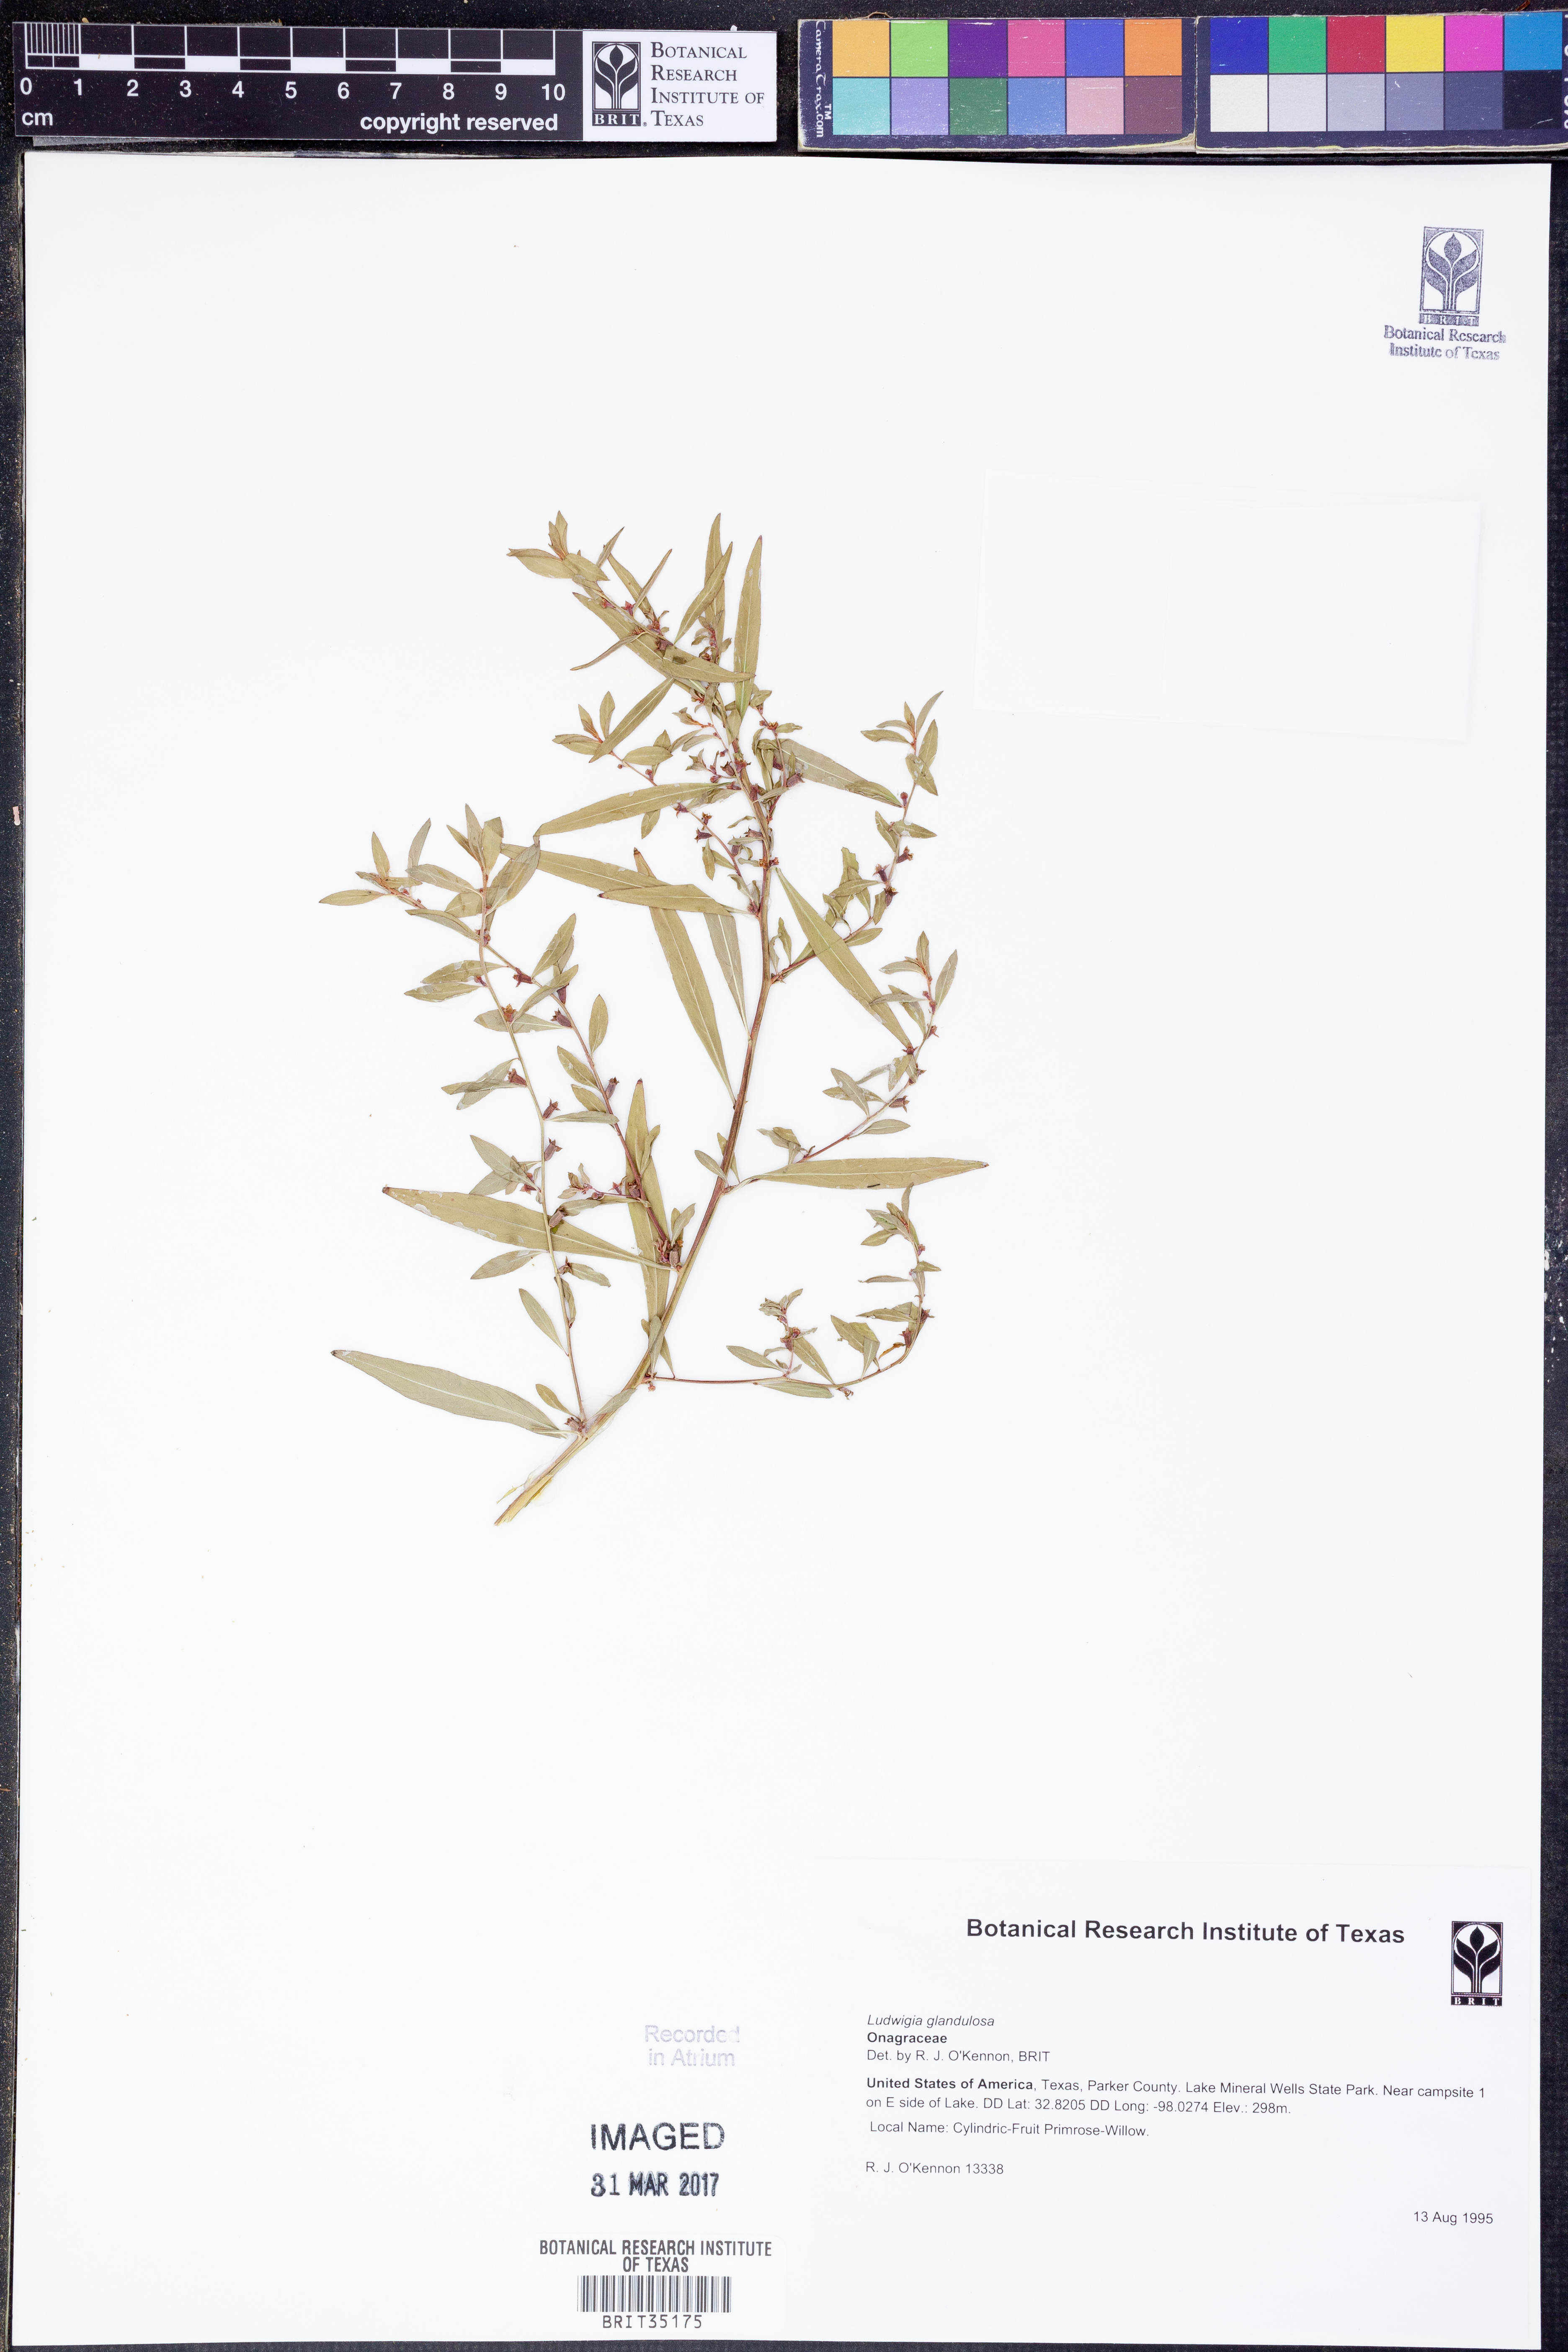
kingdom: Plantae
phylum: Tracheophyta
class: Magnoliopsida
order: Myrtales
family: Onagraceae
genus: Ludwigia
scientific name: Ludwigia glandulosa
